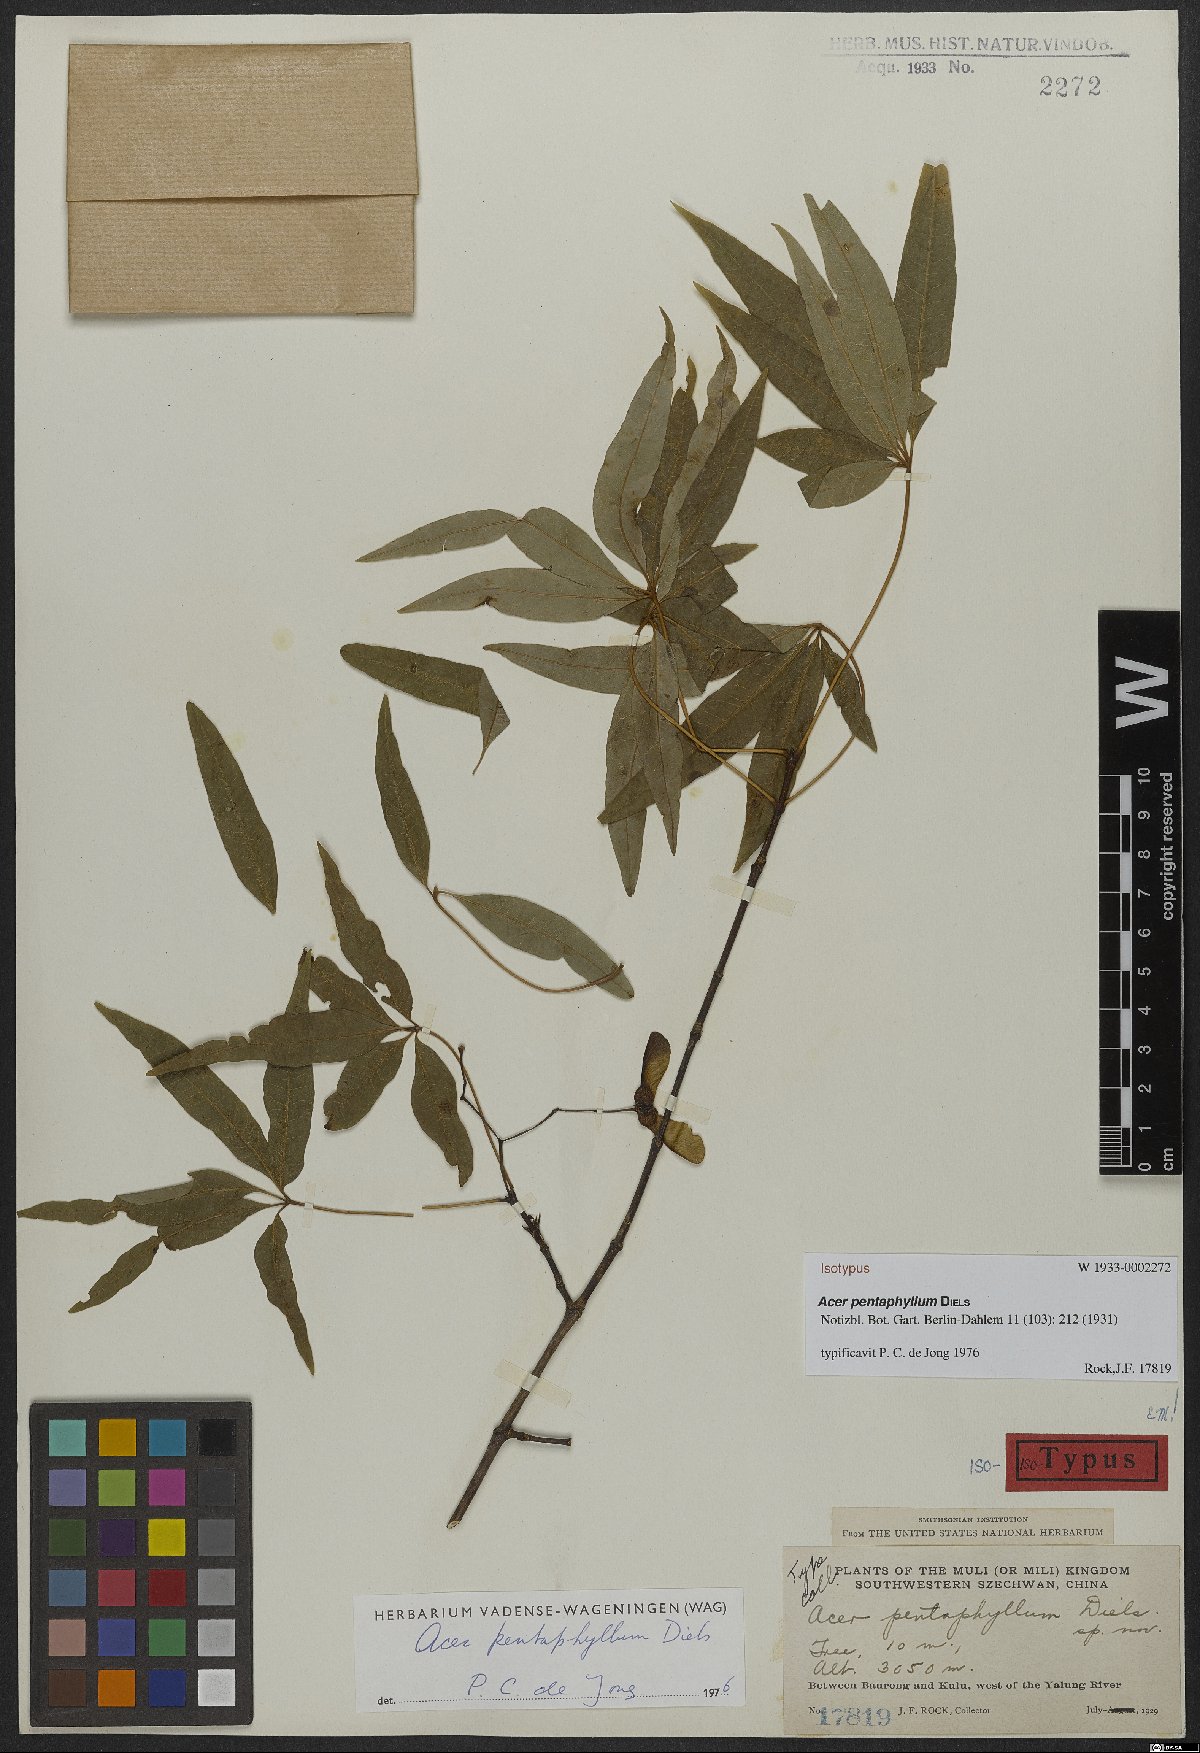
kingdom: Plantae
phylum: Tracheophyta
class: Magnoliopsida
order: Sapindales
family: Sapindaceae
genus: Acer
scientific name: Acer pentaphyllum
